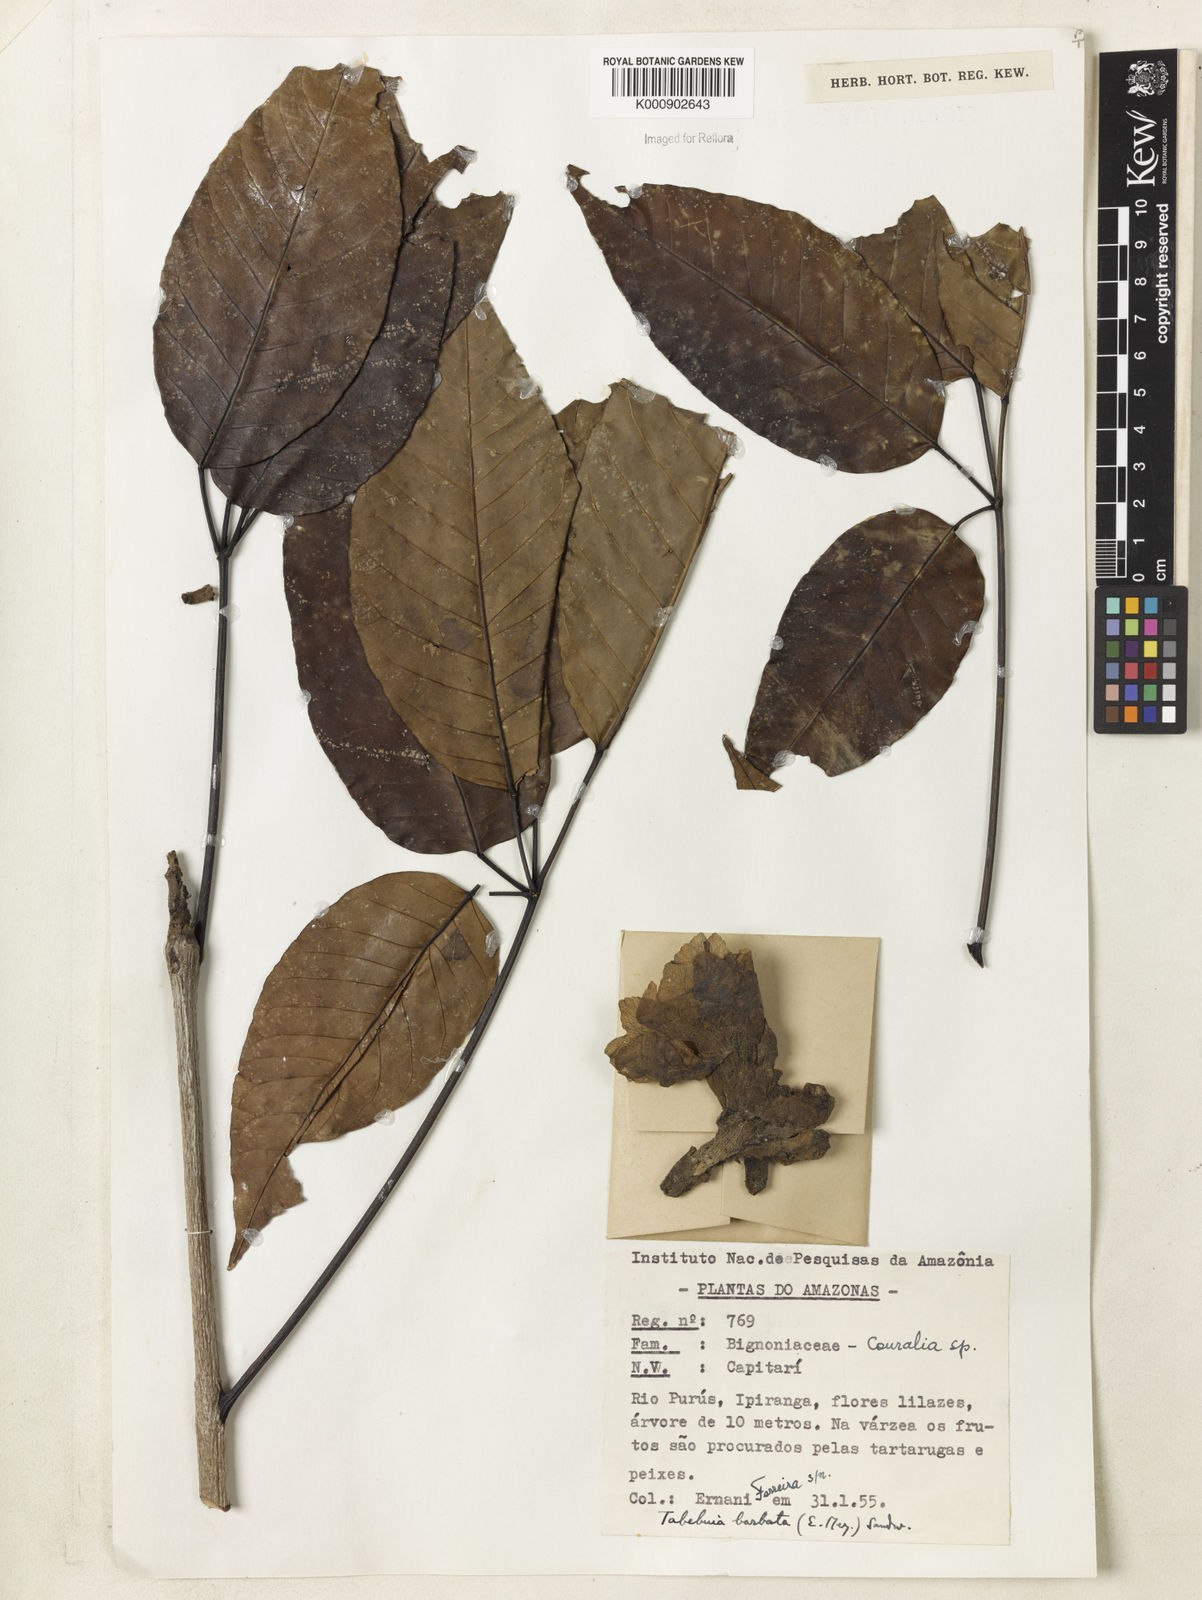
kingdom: Plantae
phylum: Tracheophyta
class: Magnoliopsida
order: Lamiales
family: Bignoniaceae
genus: Handroanthus
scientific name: Handroanthus barbatus
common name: Trumpet trees
